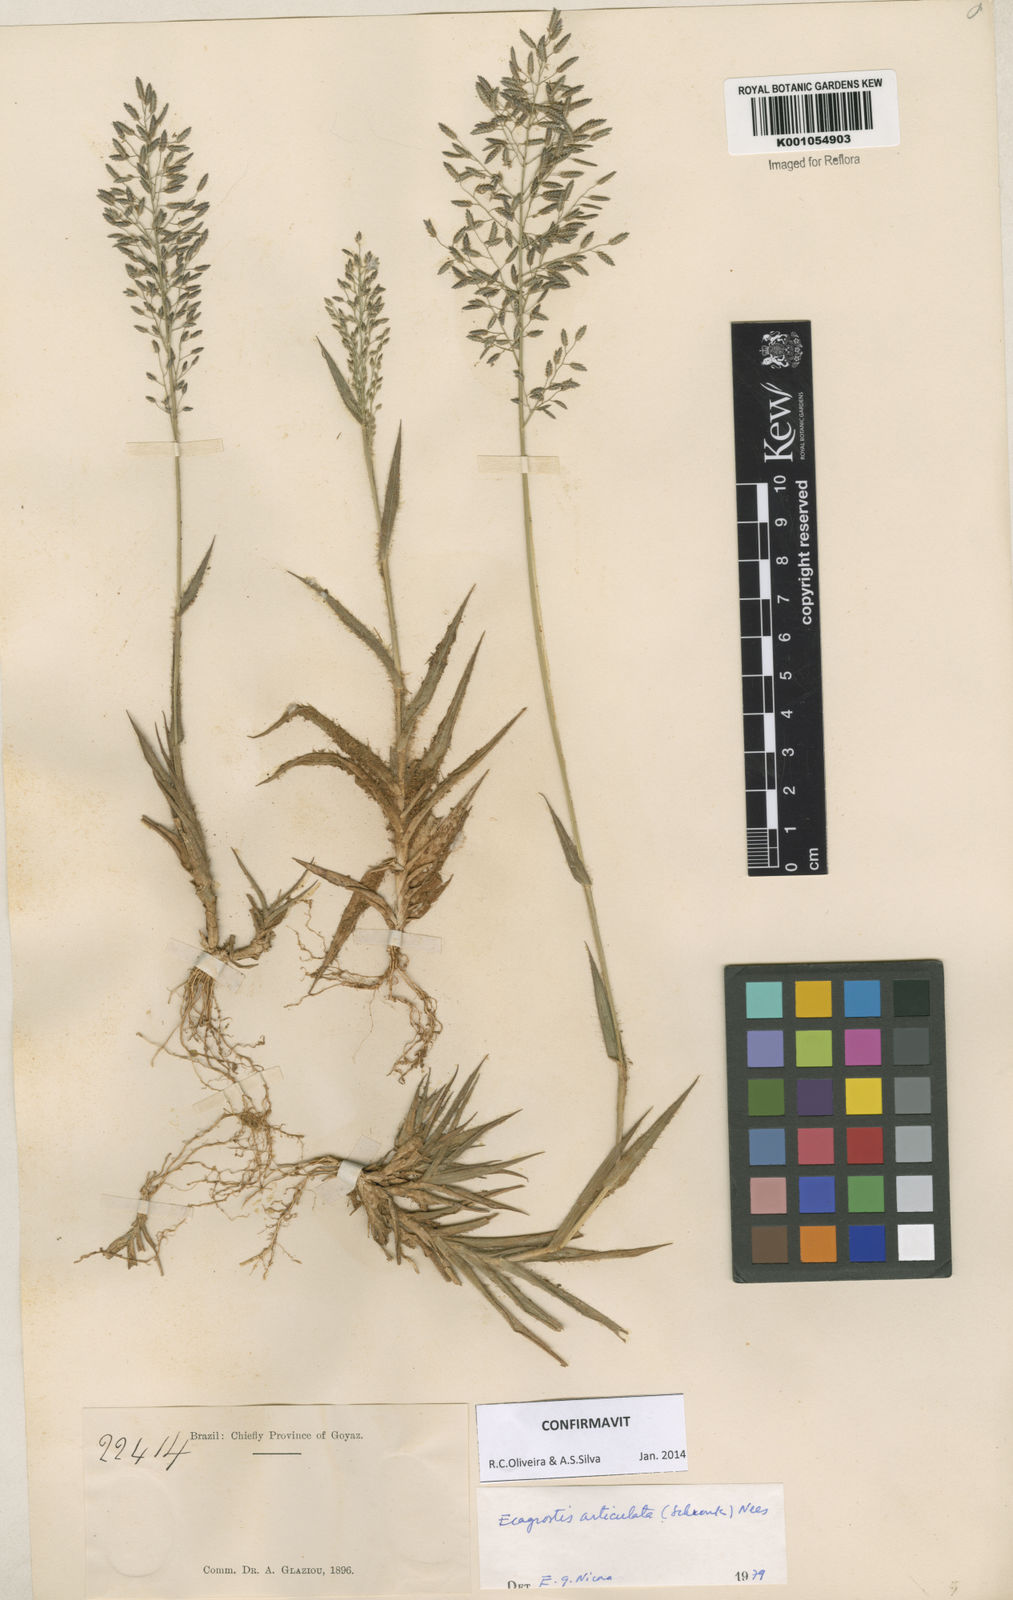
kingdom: Plantae
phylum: Tracheophyta
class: Liliopsida
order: Poales
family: Poaceae
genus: Eragrostis
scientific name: Eragrostis articulata
